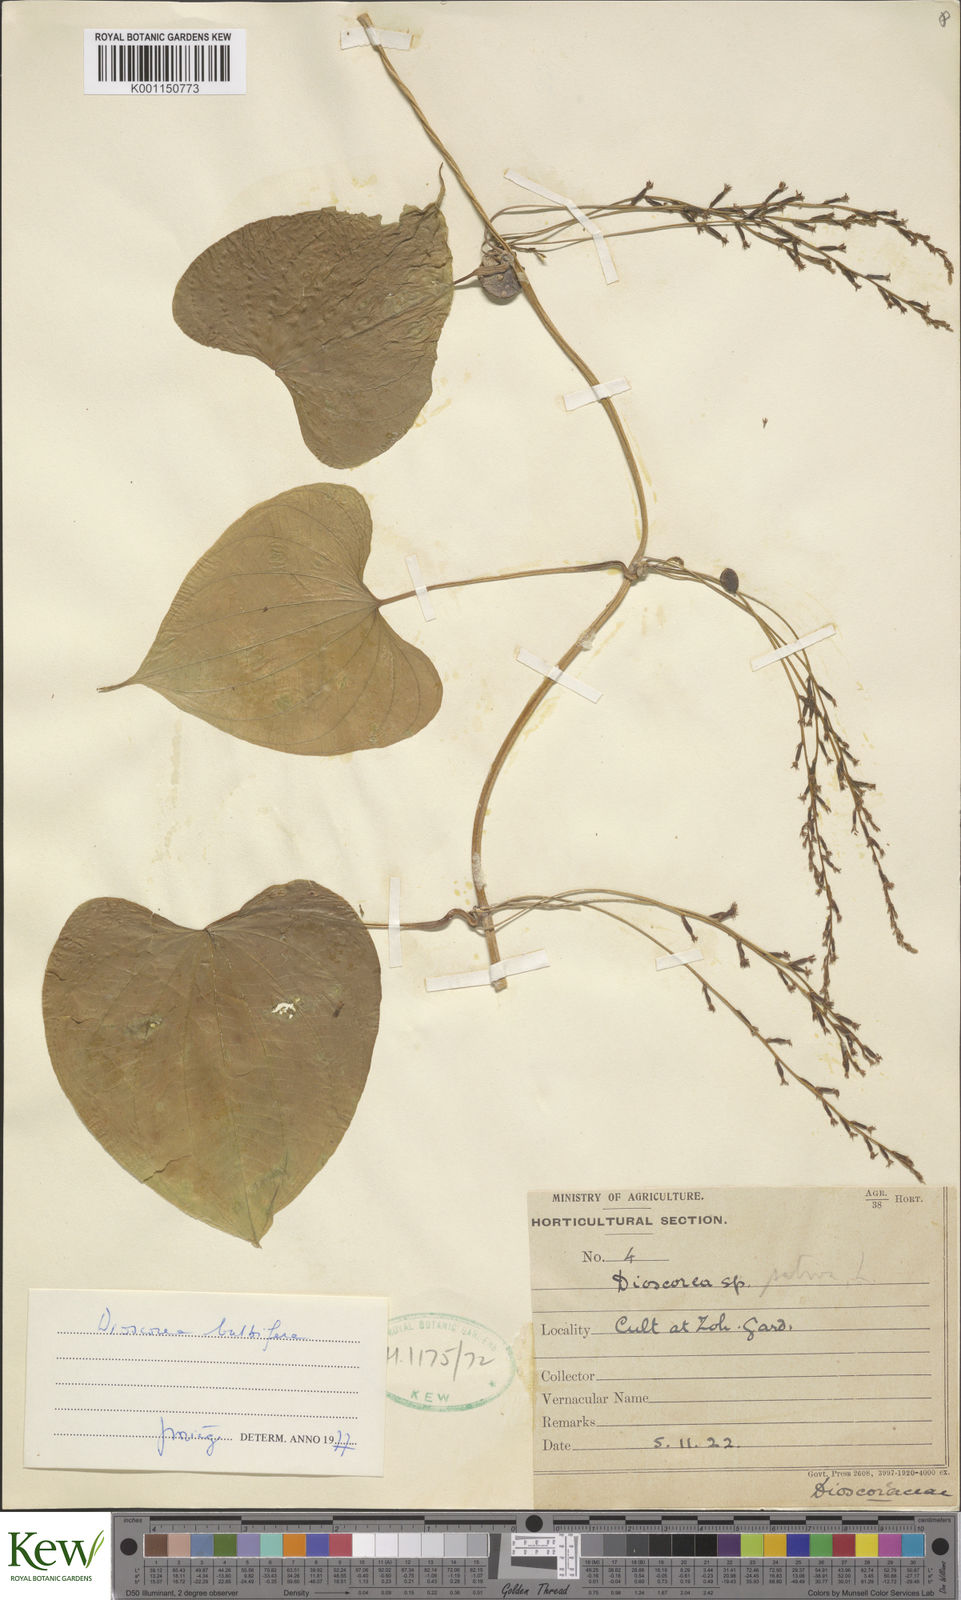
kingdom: Plantae
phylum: Tracheophyta
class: Liliopsida
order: Dioscoreales
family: Dioscoreaceae
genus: Dioscorea
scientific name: Dioscorea bulbifera
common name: Air yam
